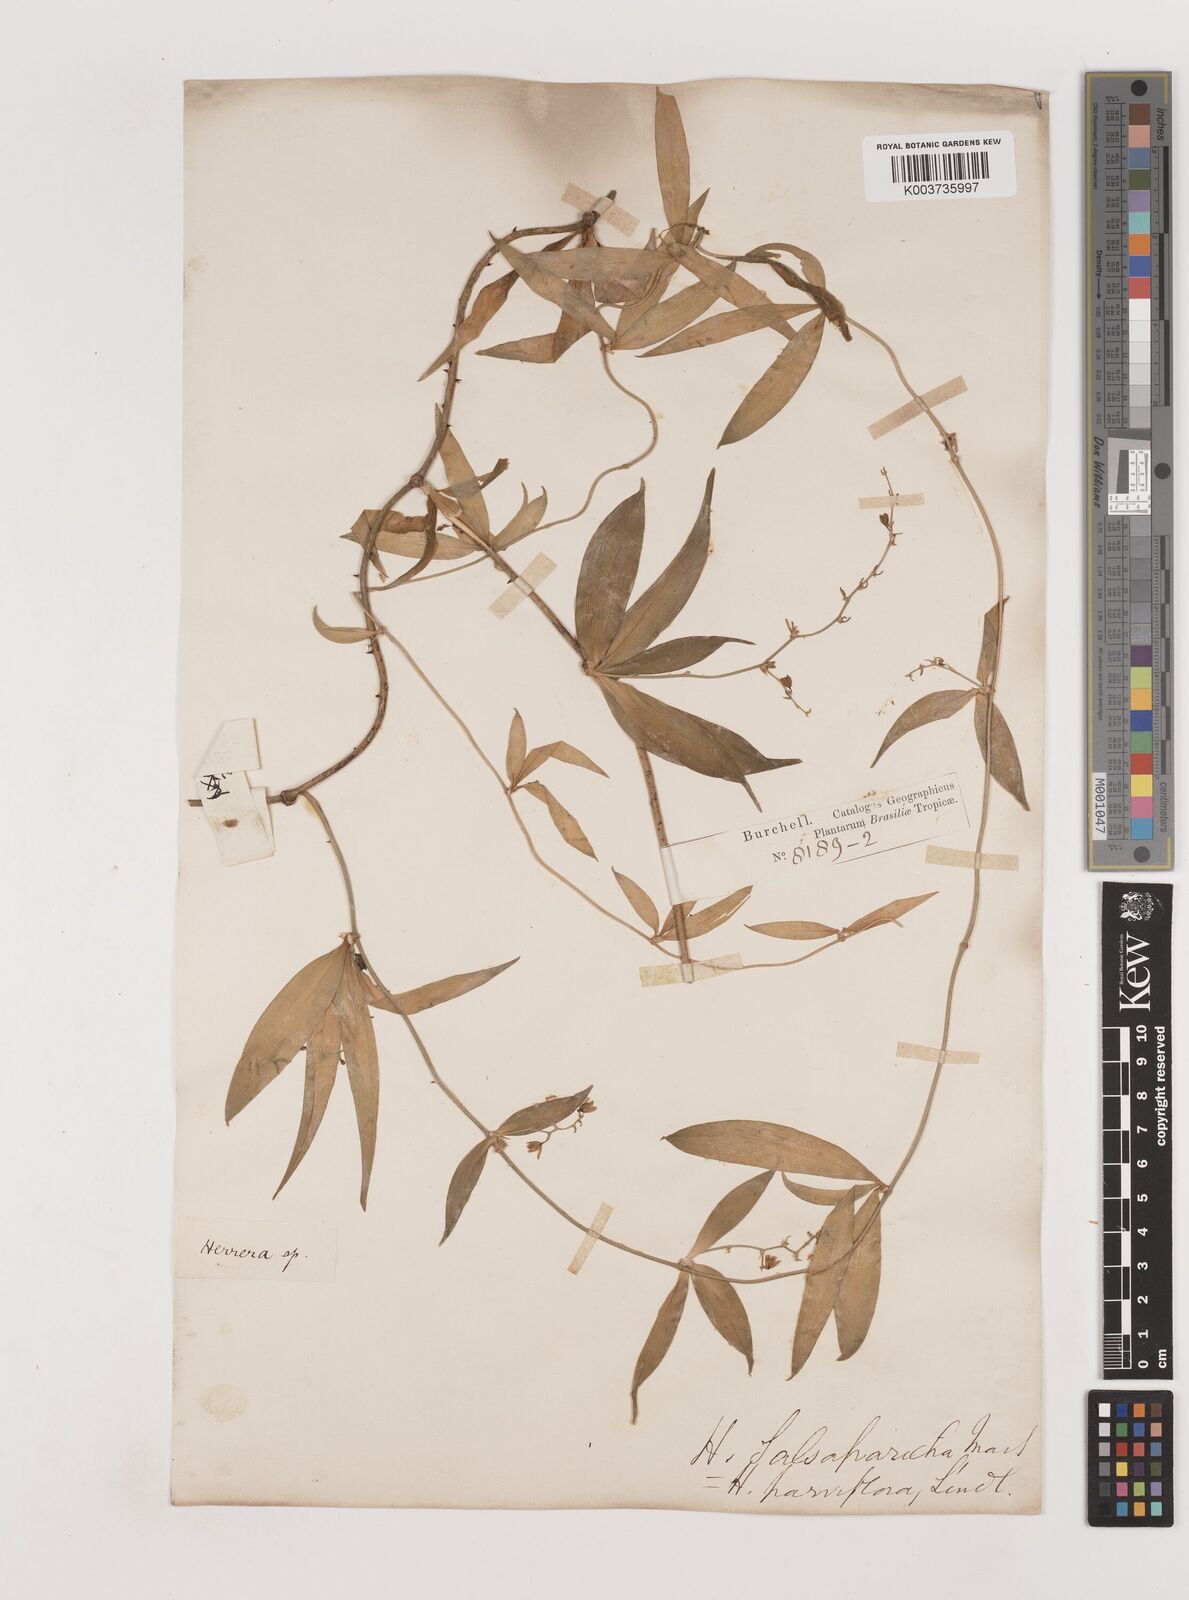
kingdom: Plantae
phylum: Tracheophyta
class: Liliopsida
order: Asparagales
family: Asparagaceae
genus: Herreria
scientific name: Herreria salsaparilha
